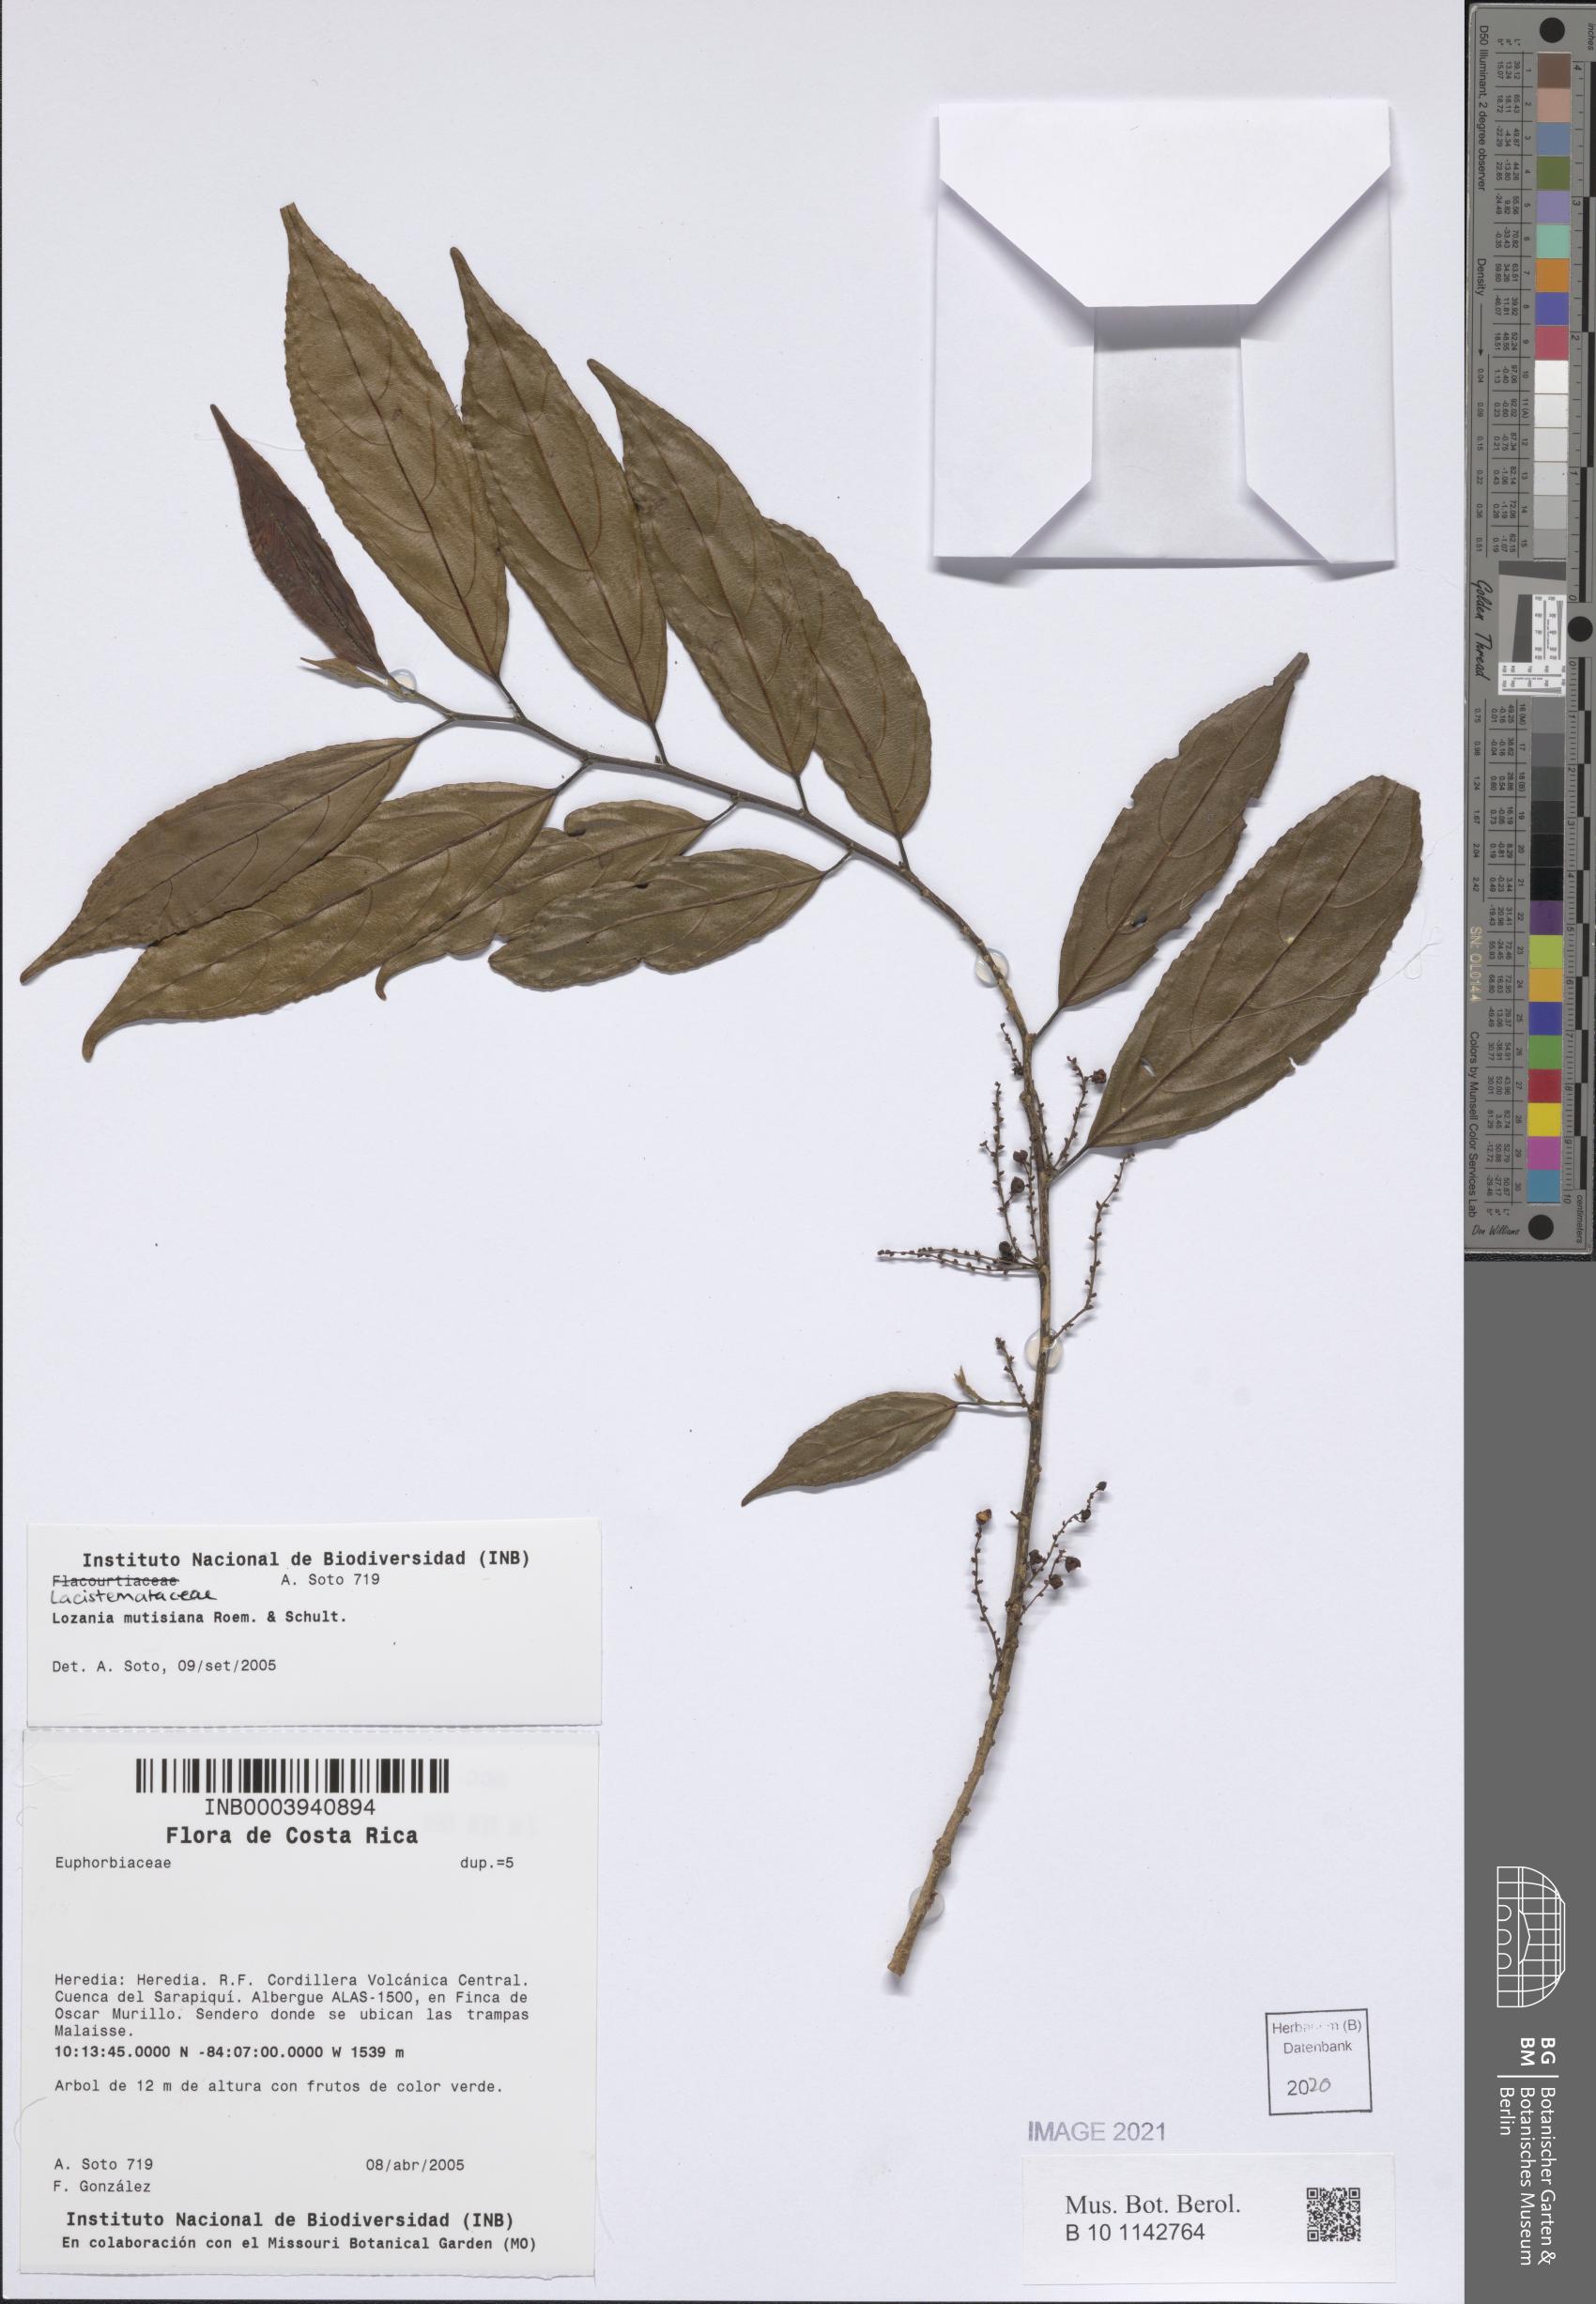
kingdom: Plantae
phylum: Tracheophyta
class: Magnoliopsida
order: Malpighiales
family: Lacistemataceae
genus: Lozania
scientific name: Lozania mutisiana
